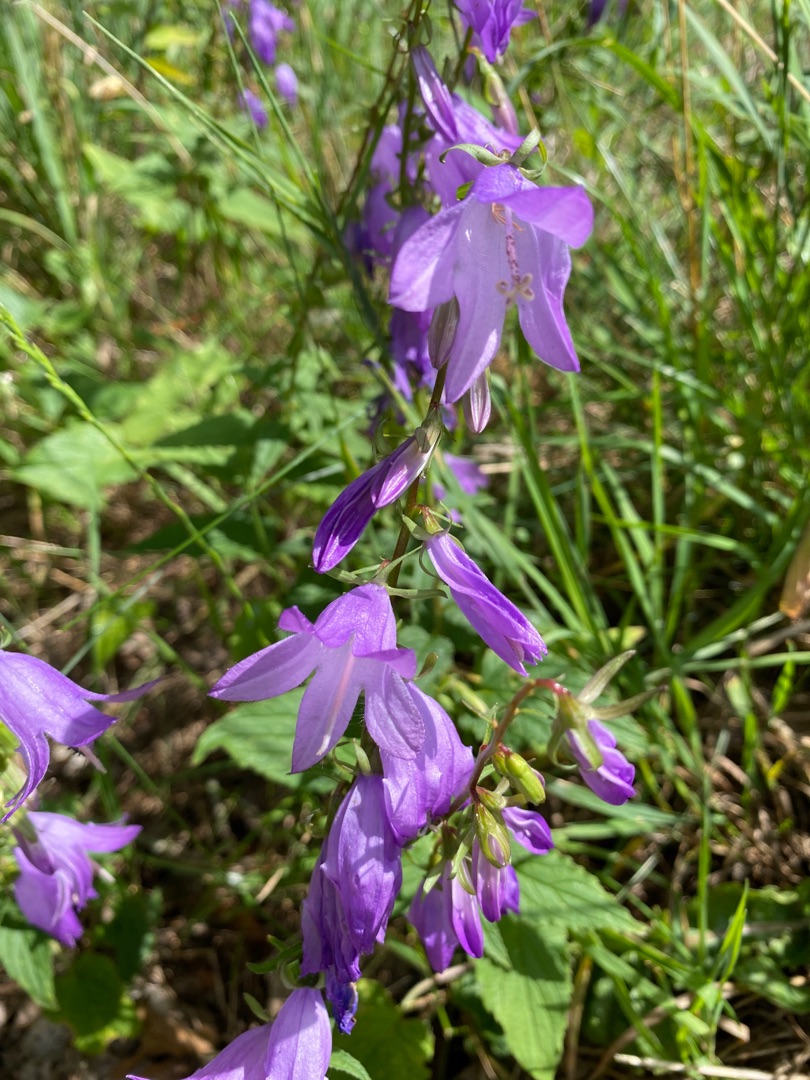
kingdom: Plantae
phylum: Tracheophyta
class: Magnoliopsida
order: Asterales
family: Campanulaceae
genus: Campanula
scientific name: Campanula rapunculoides
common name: Ensidig klokke
